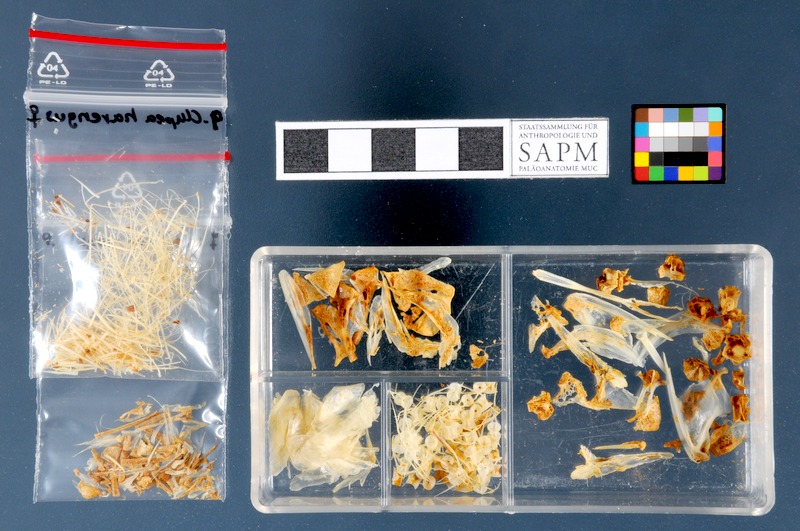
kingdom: Animalia
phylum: Chordata
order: Clupeiformes
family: Clupeidae
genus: Clupea
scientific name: Clupea harengus
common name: Herring
